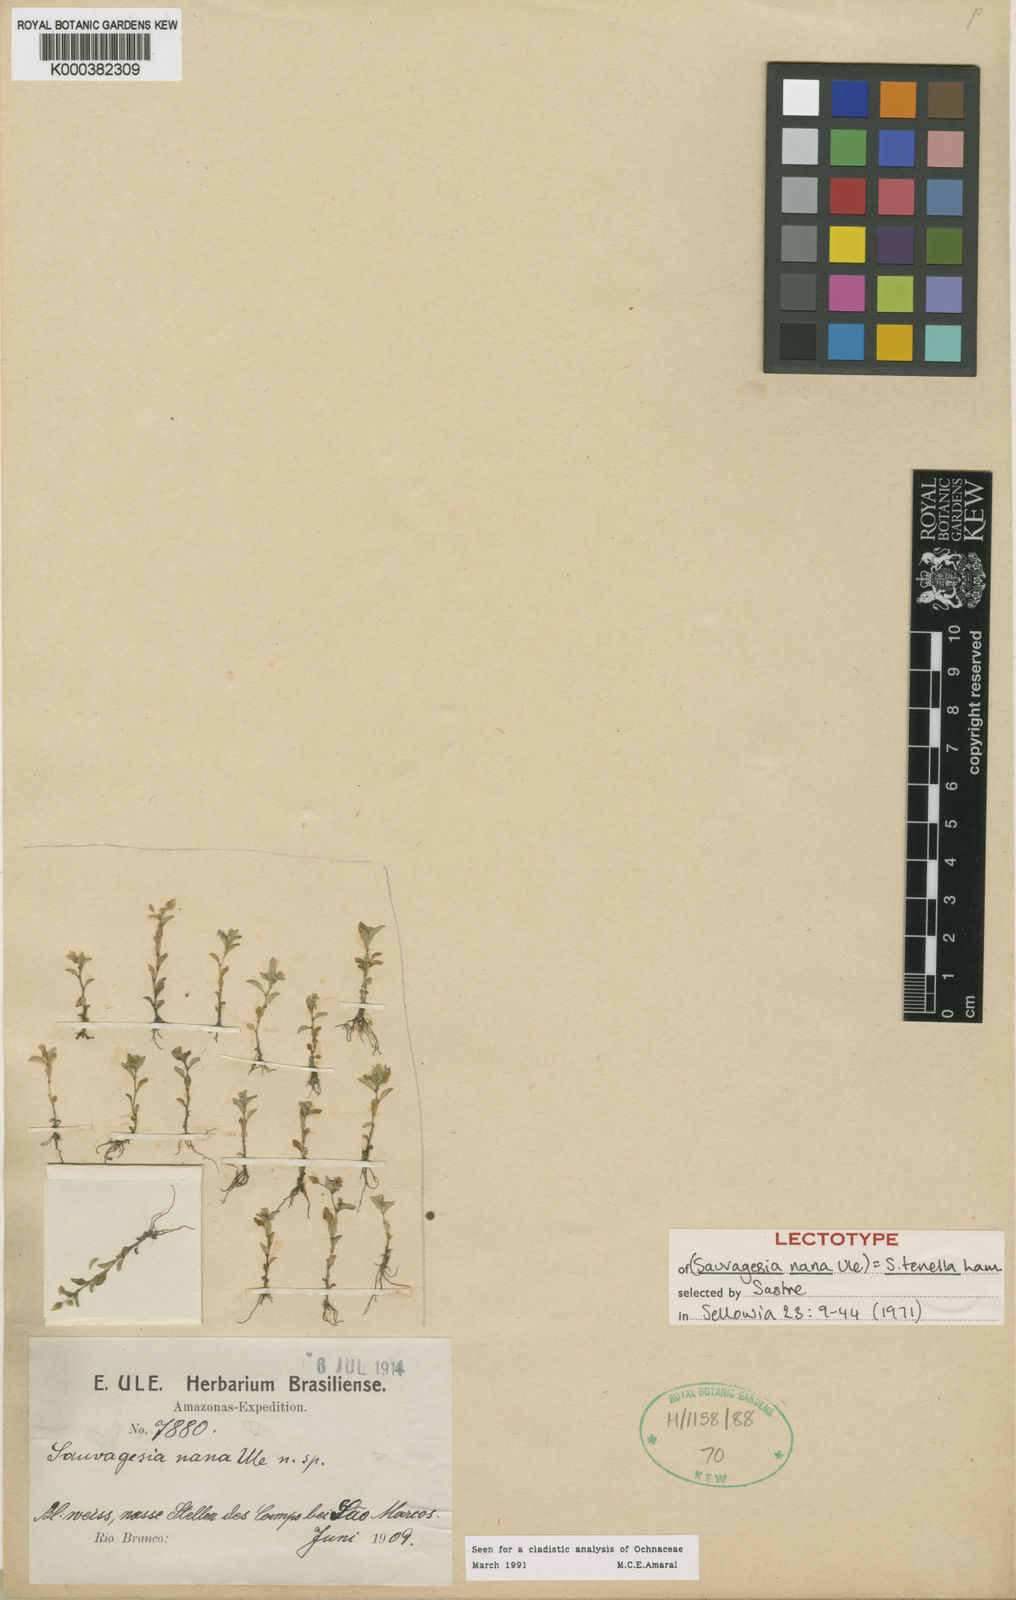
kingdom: Plantae
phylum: Tracheophyta
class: Magnoliopsida
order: Malpighiales
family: Ochnaceae
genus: Sauvagesia
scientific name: Sauvagesia tenella
